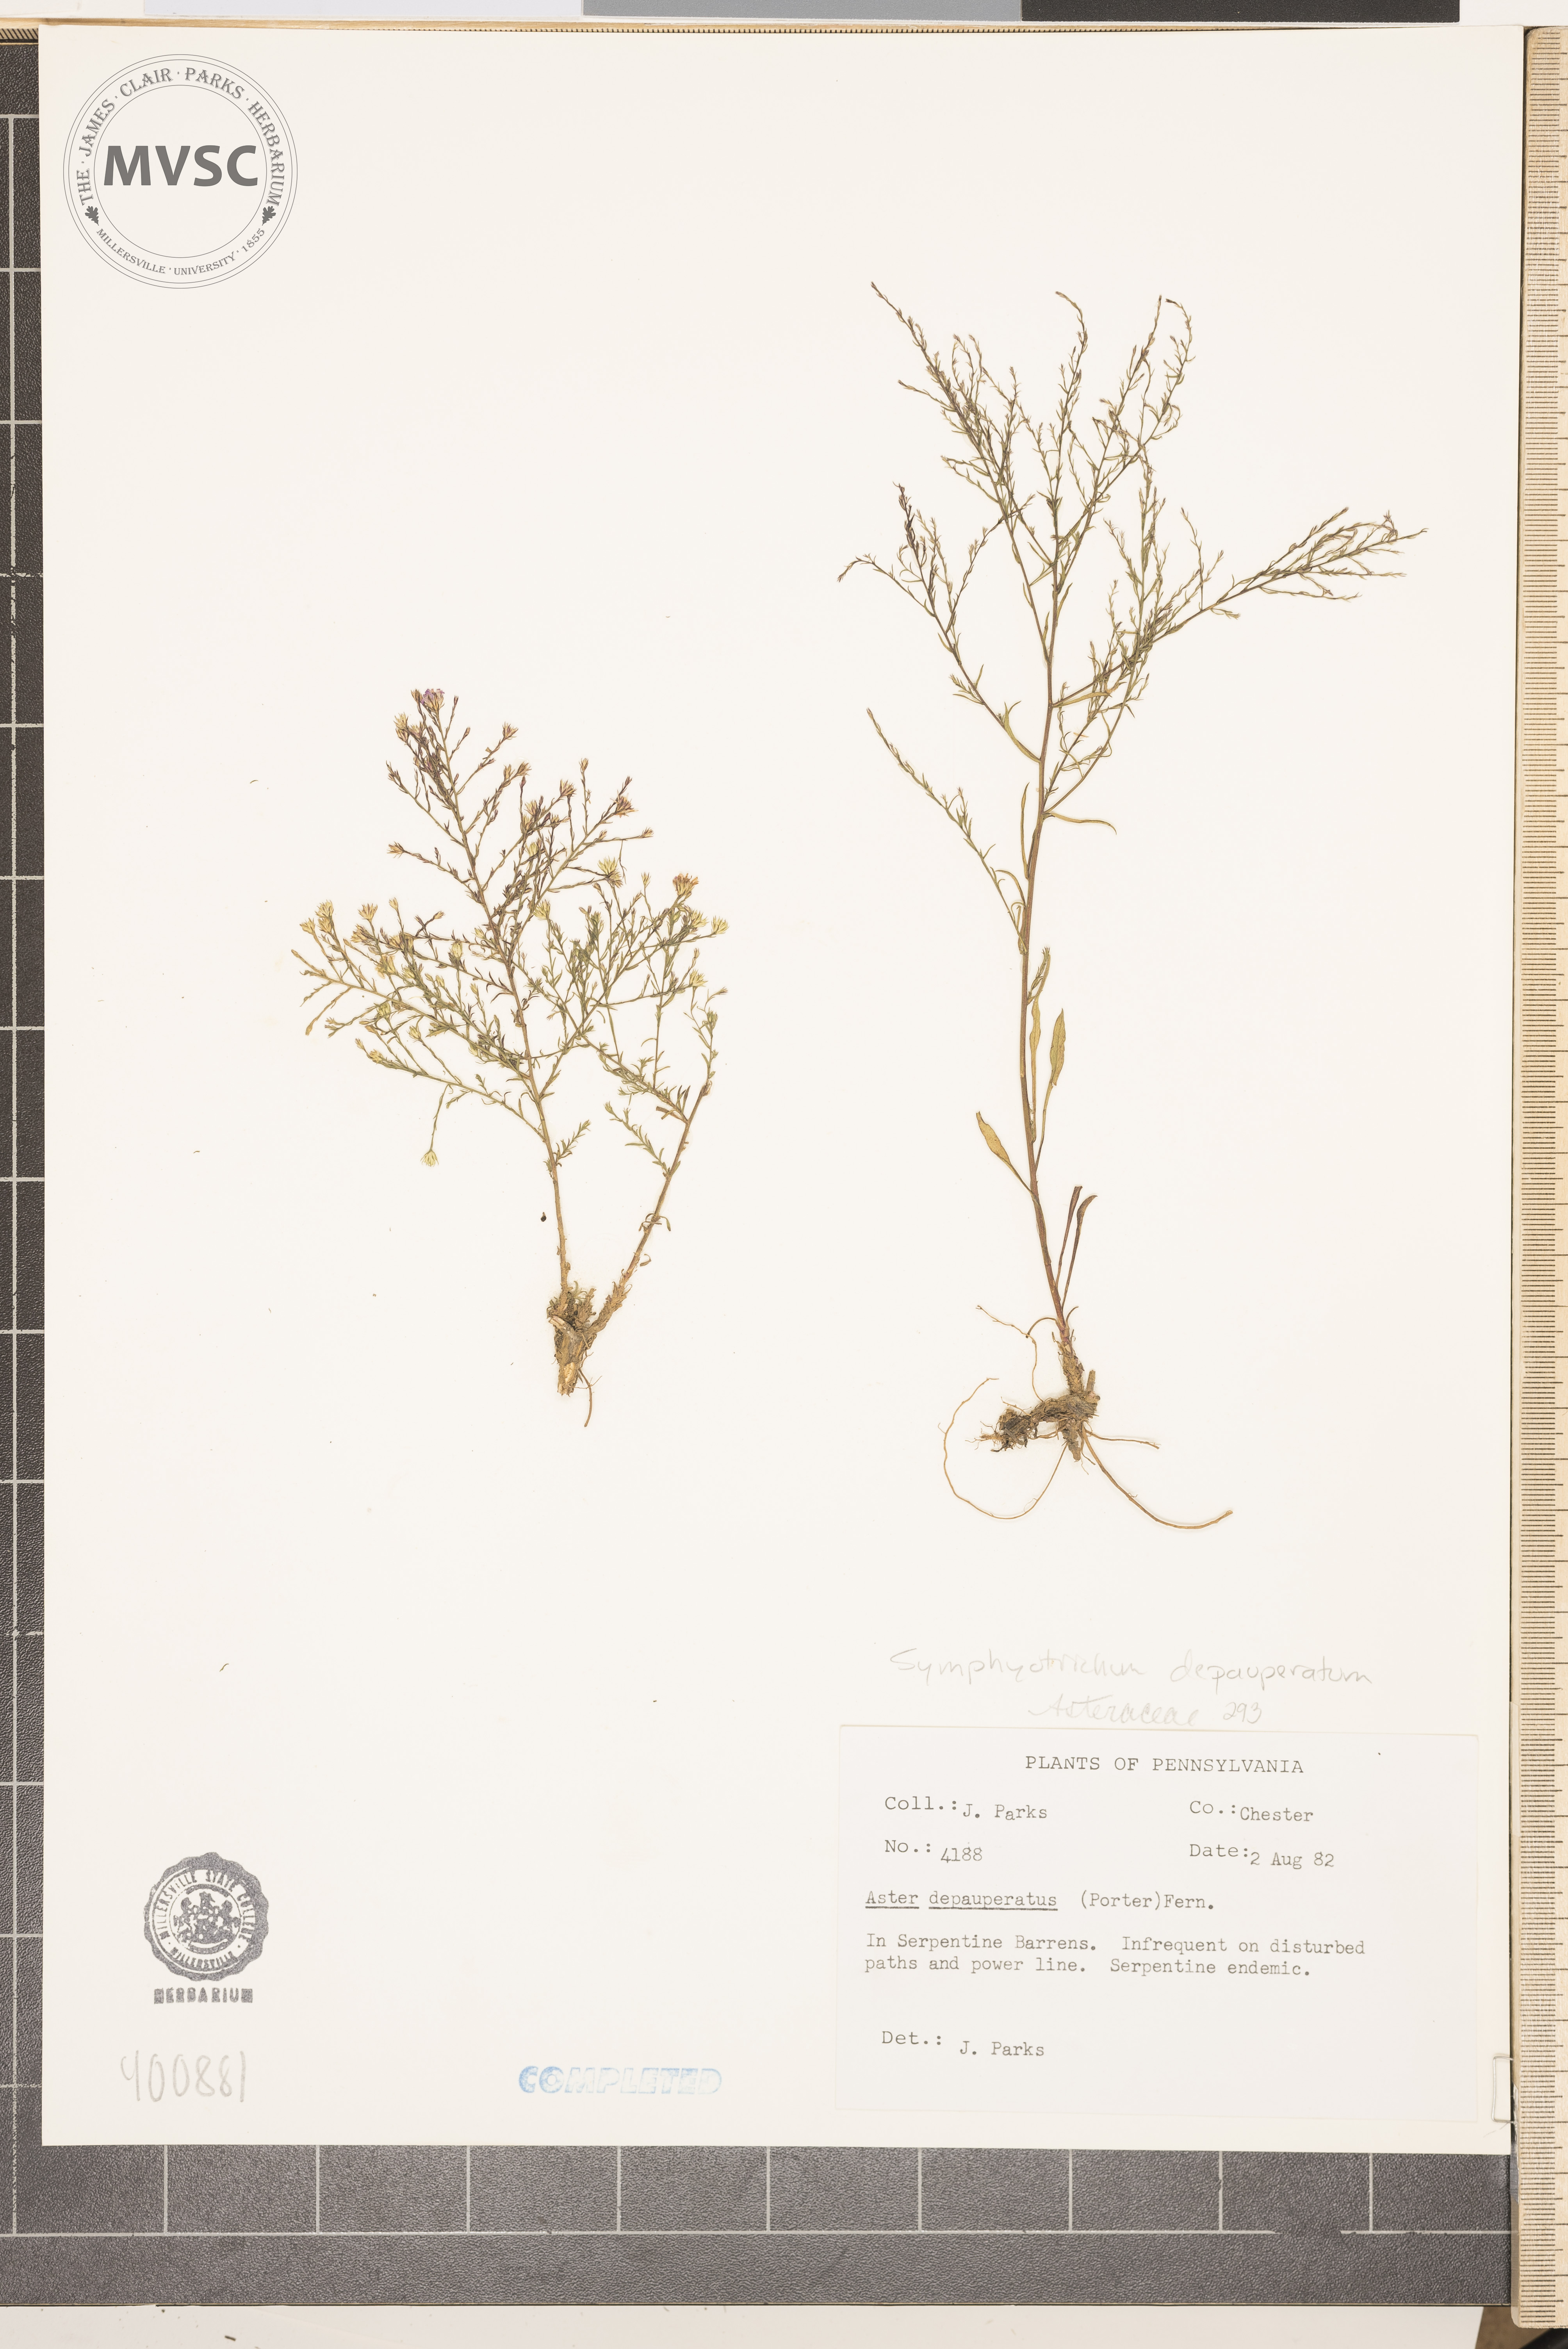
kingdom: Plantae
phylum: Tracheophyta
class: Magnoliopsida
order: Asterales
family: Asteraceae
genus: Symphyotrichum
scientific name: Symphyotrichum depauperatum
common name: serpentine aster
